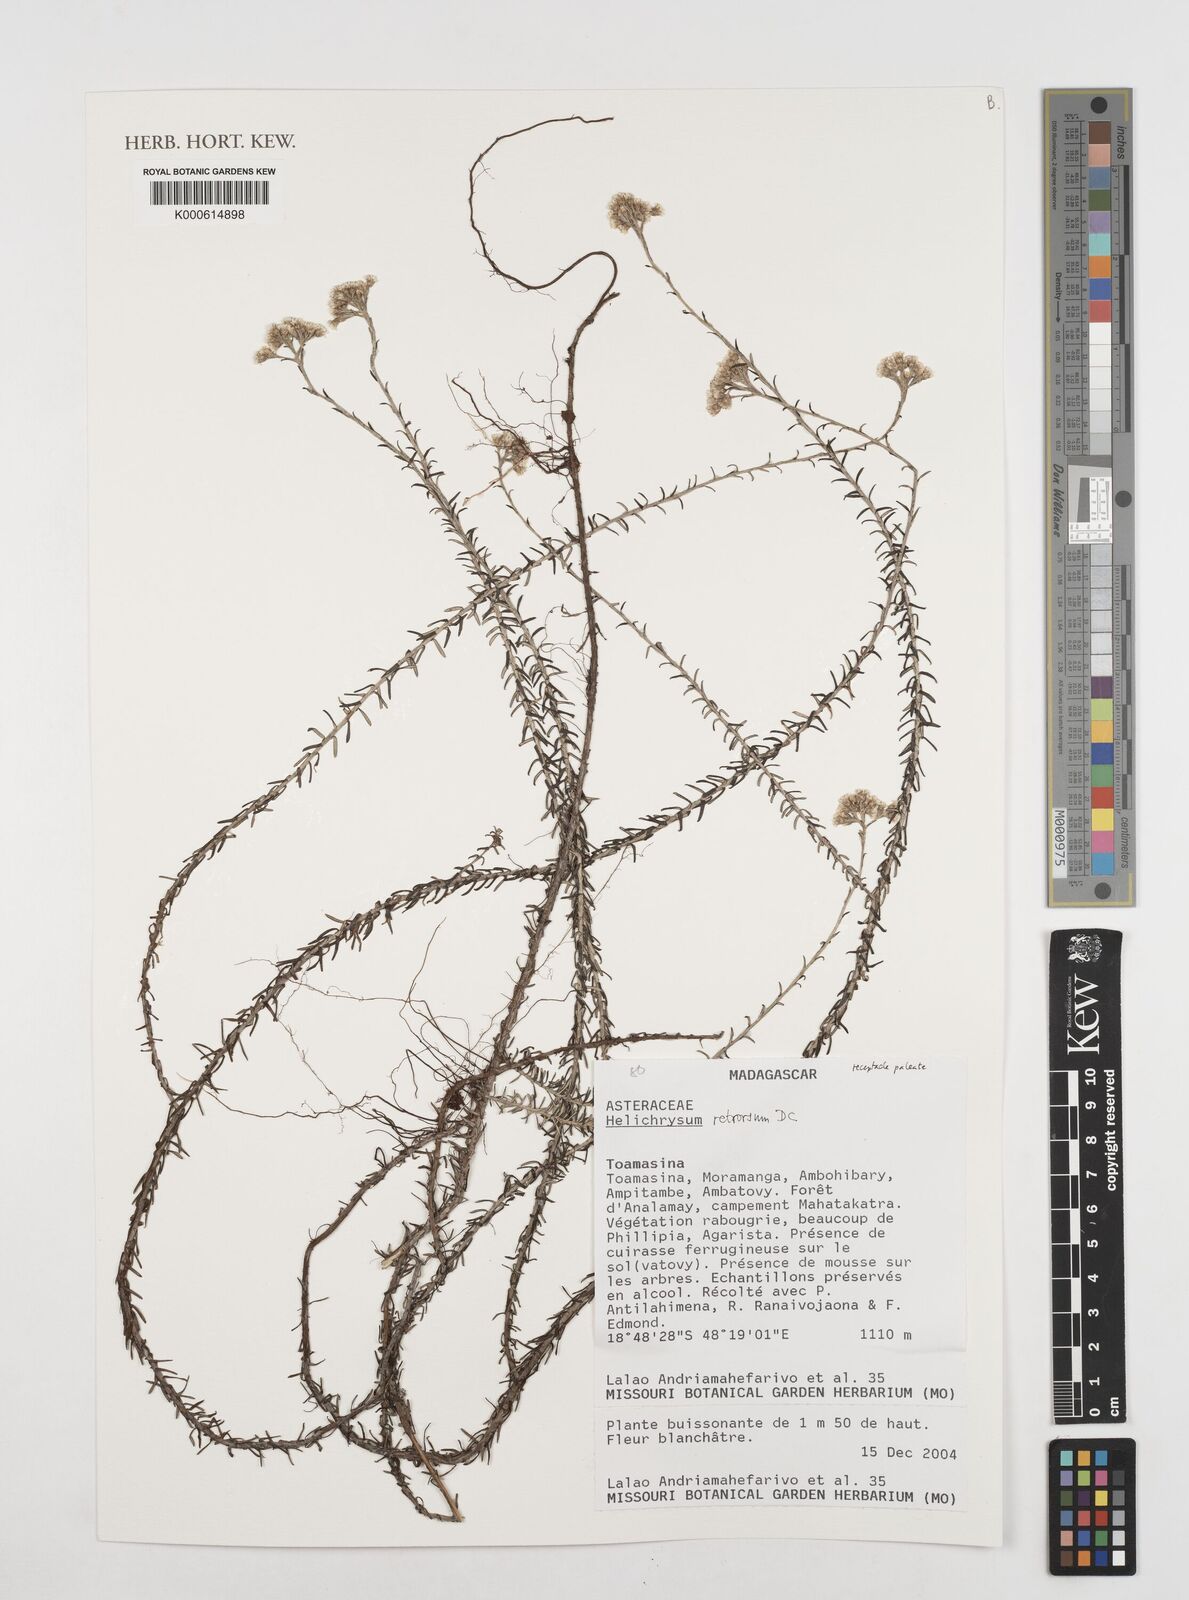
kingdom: Plantae
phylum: Tracheophyta
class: Magnoliopsida
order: Asterales
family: Asteraceae
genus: Helichrysum
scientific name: Helichrysum retrorsum
